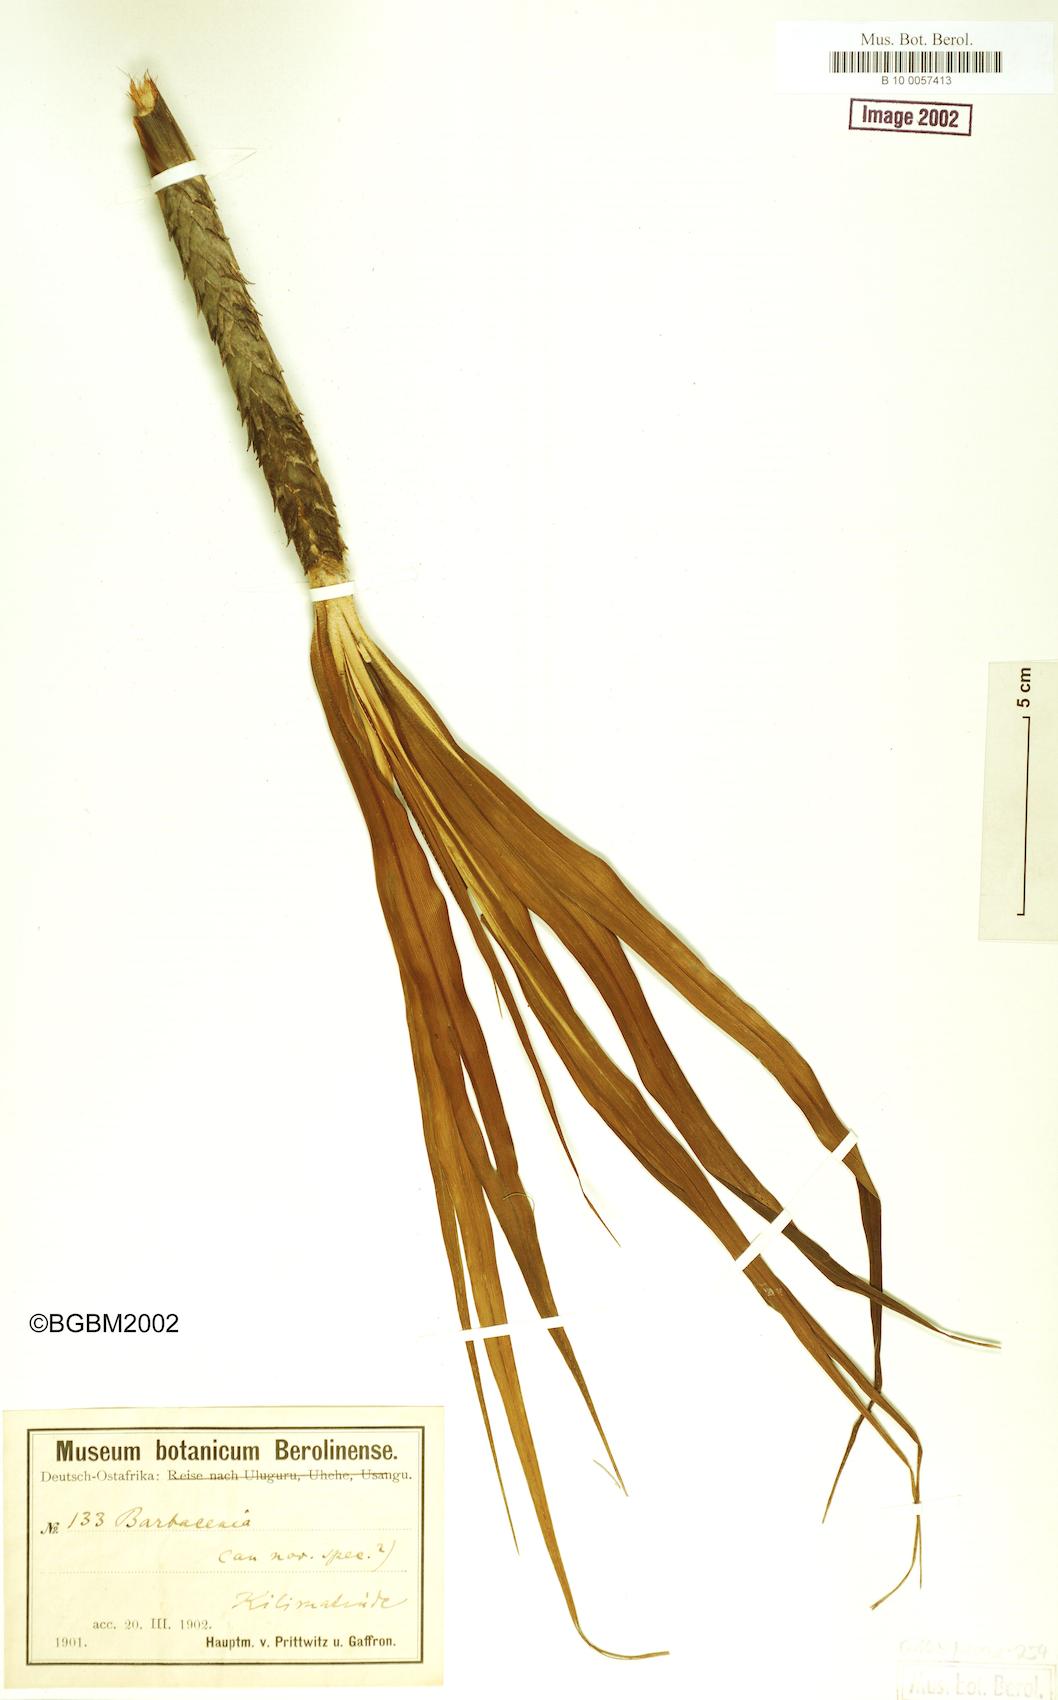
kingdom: Plantae
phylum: Tracheophyta
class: Liliopsida
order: Pandanales
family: Velloziaceae
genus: Xerophyta
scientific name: Xerophyta
